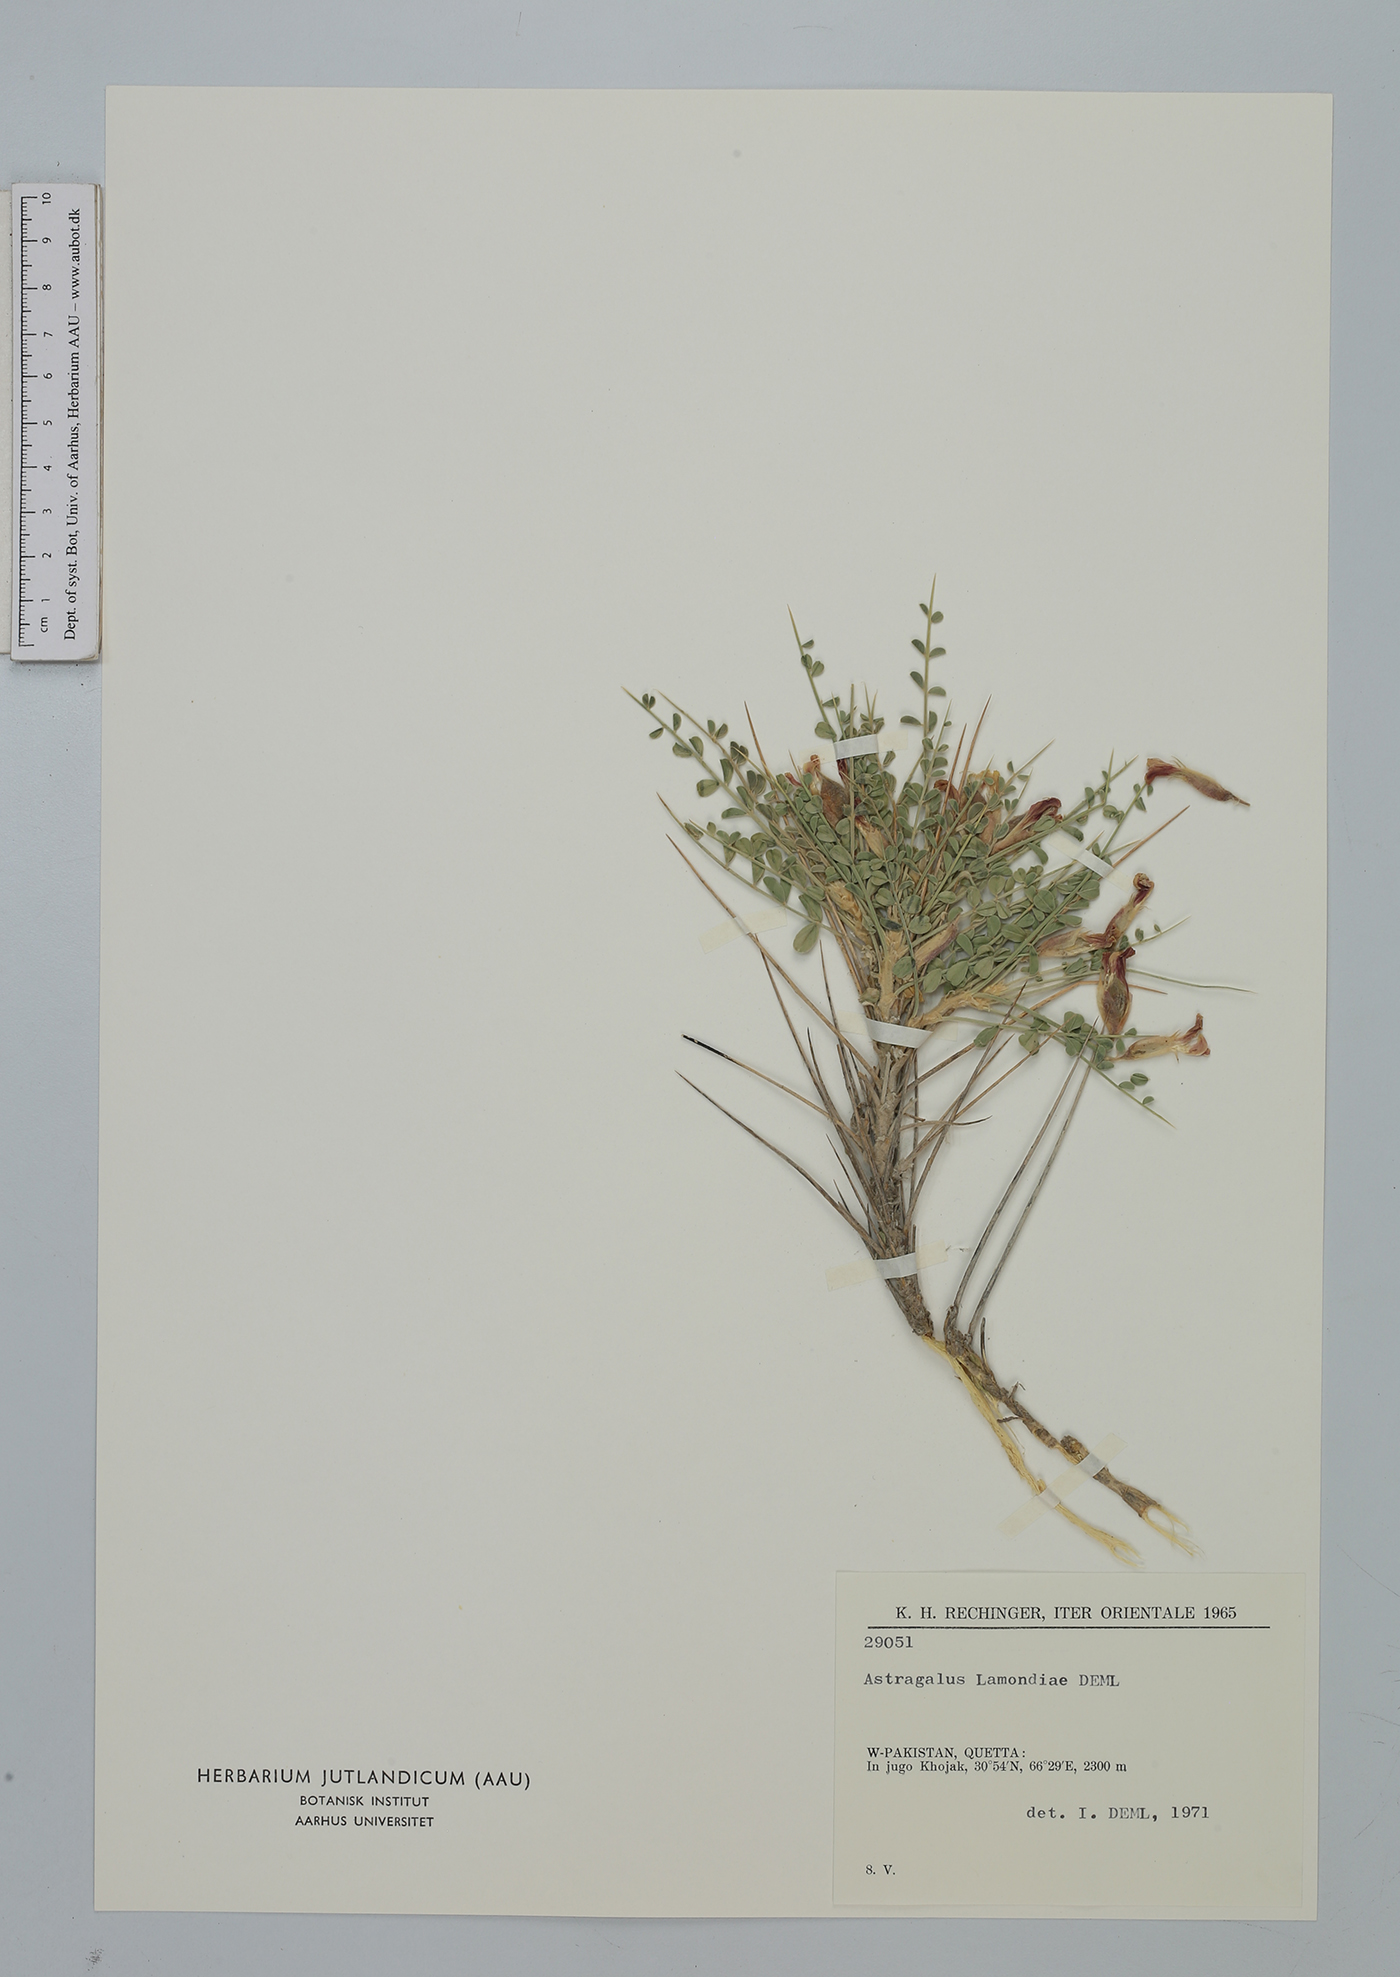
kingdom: Plantae
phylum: Tracheophyta
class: Magnoliopsida
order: Fabales
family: Fabaceae
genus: Astragalus
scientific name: Astragalus lamondiae
